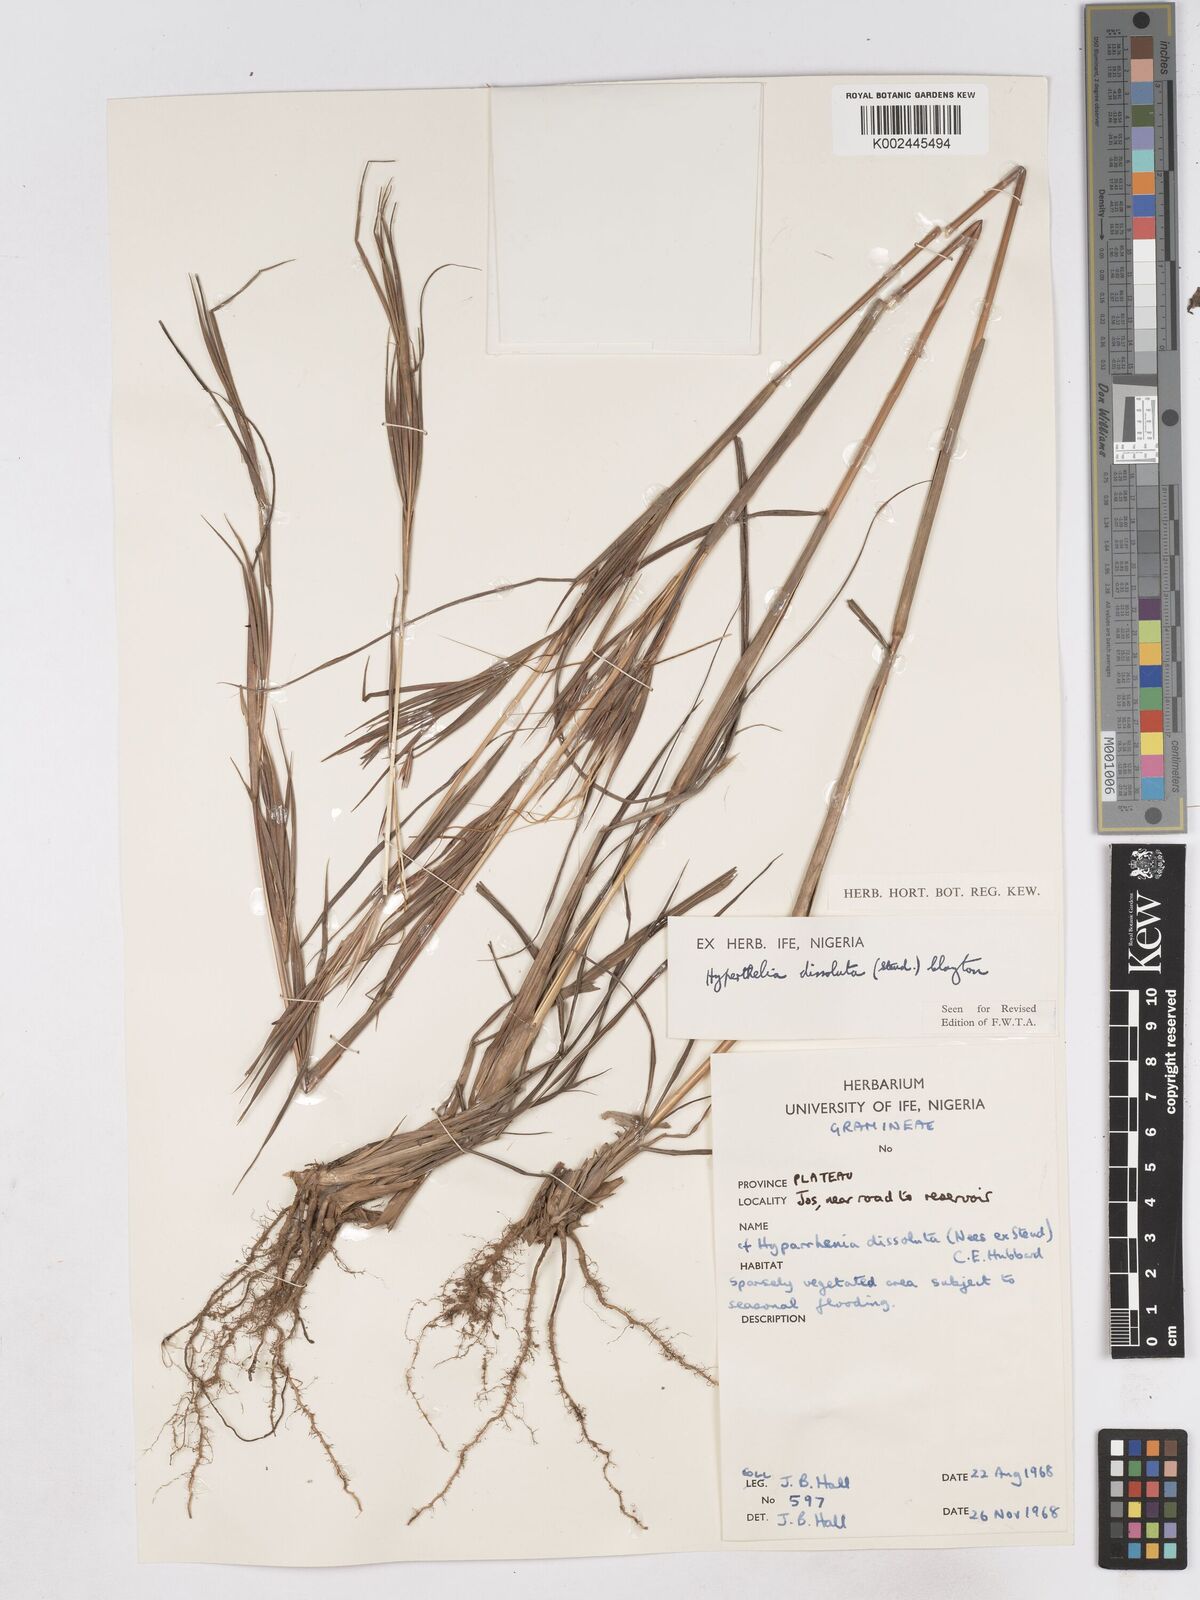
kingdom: Plantae
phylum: Tracheophyta
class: Liliopsida
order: Poales
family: Poaceae
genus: Hyperthelia
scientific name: Hyperthelia dissoluta
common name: Yellow thatching grass
